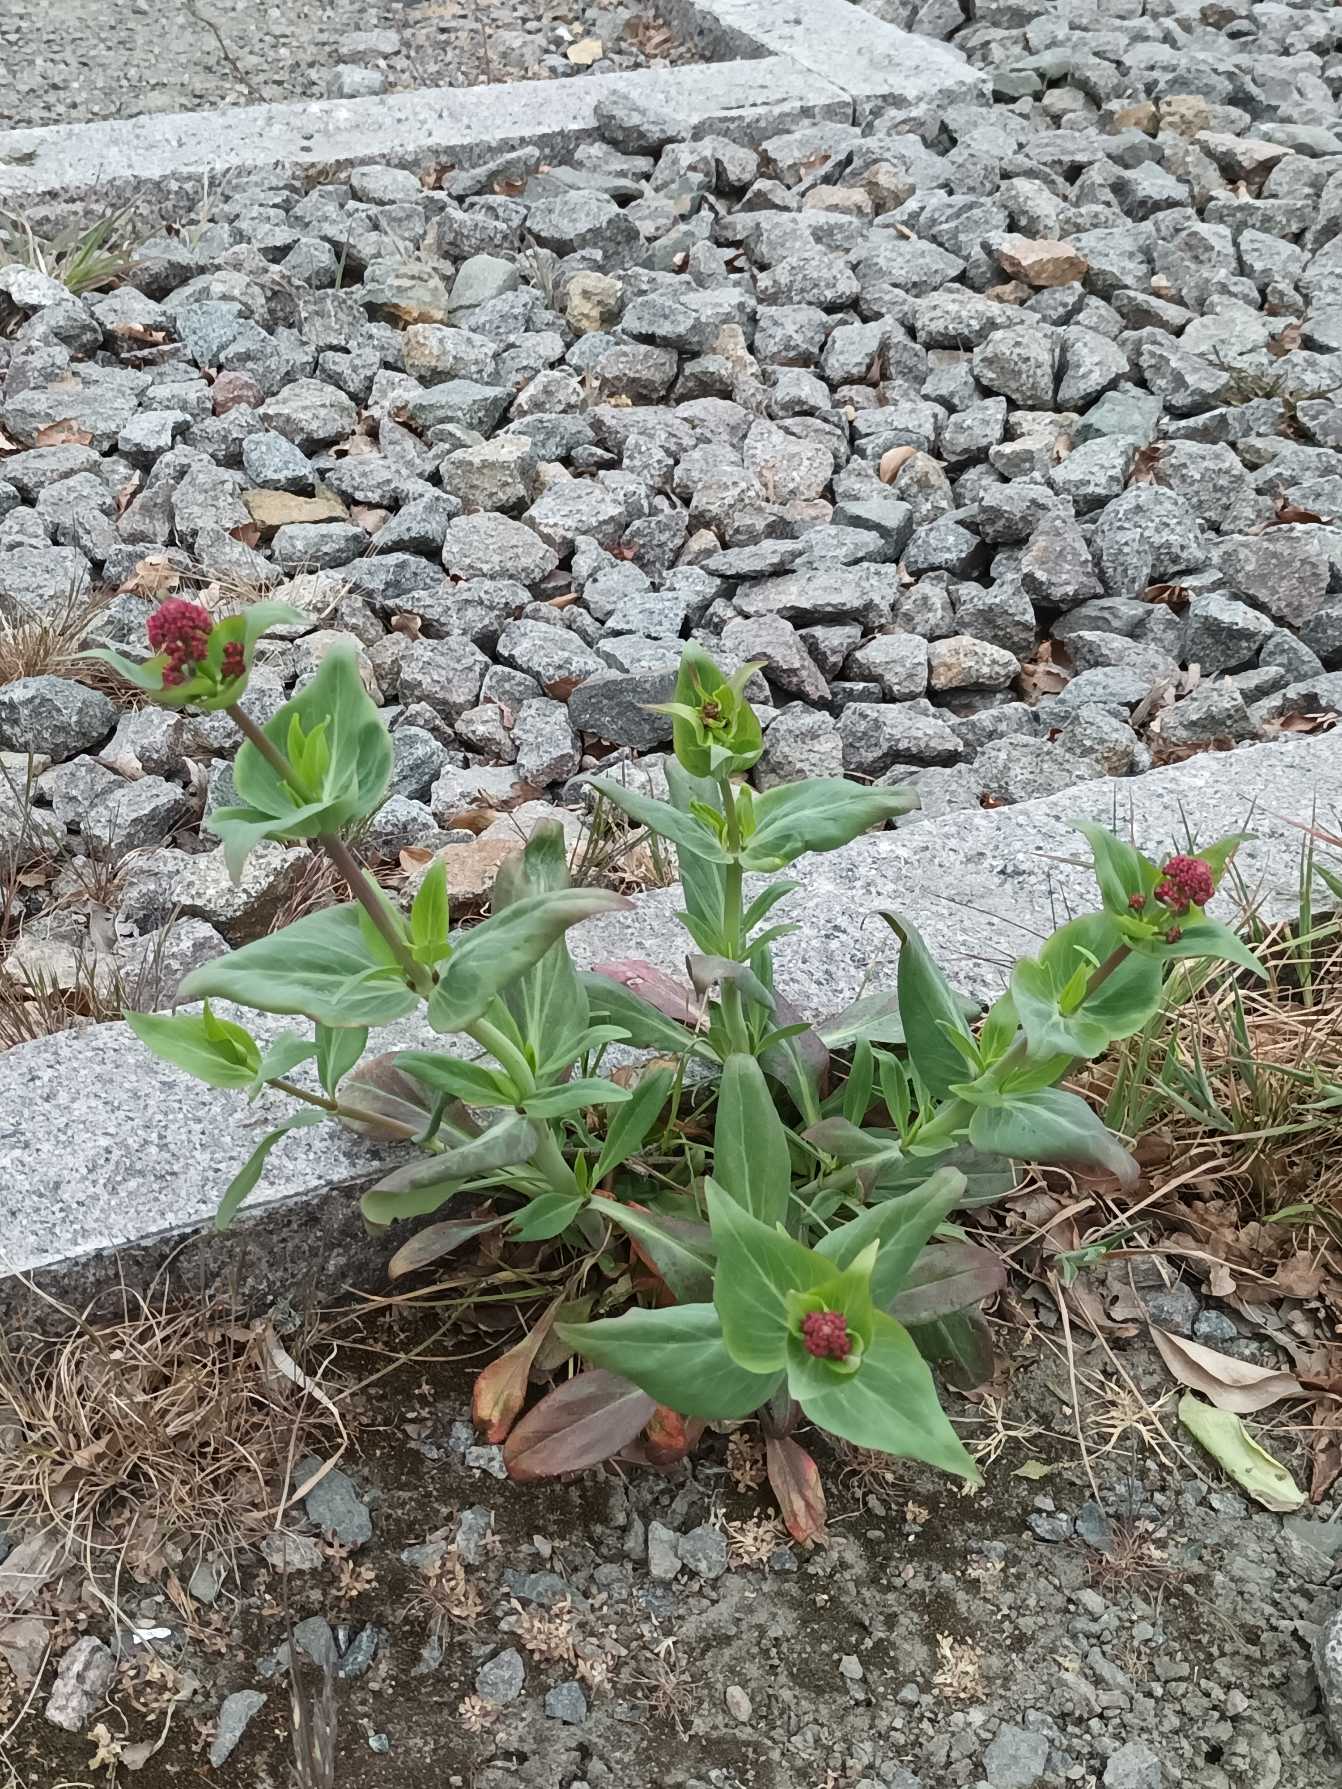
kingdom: Plantae
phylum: Tracheophyta
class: Magnoliopsida
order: Dipsacales
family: Caprifoliaceae
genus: Centranthus
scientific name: Centranthus ruber
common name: Sporebaldrian
